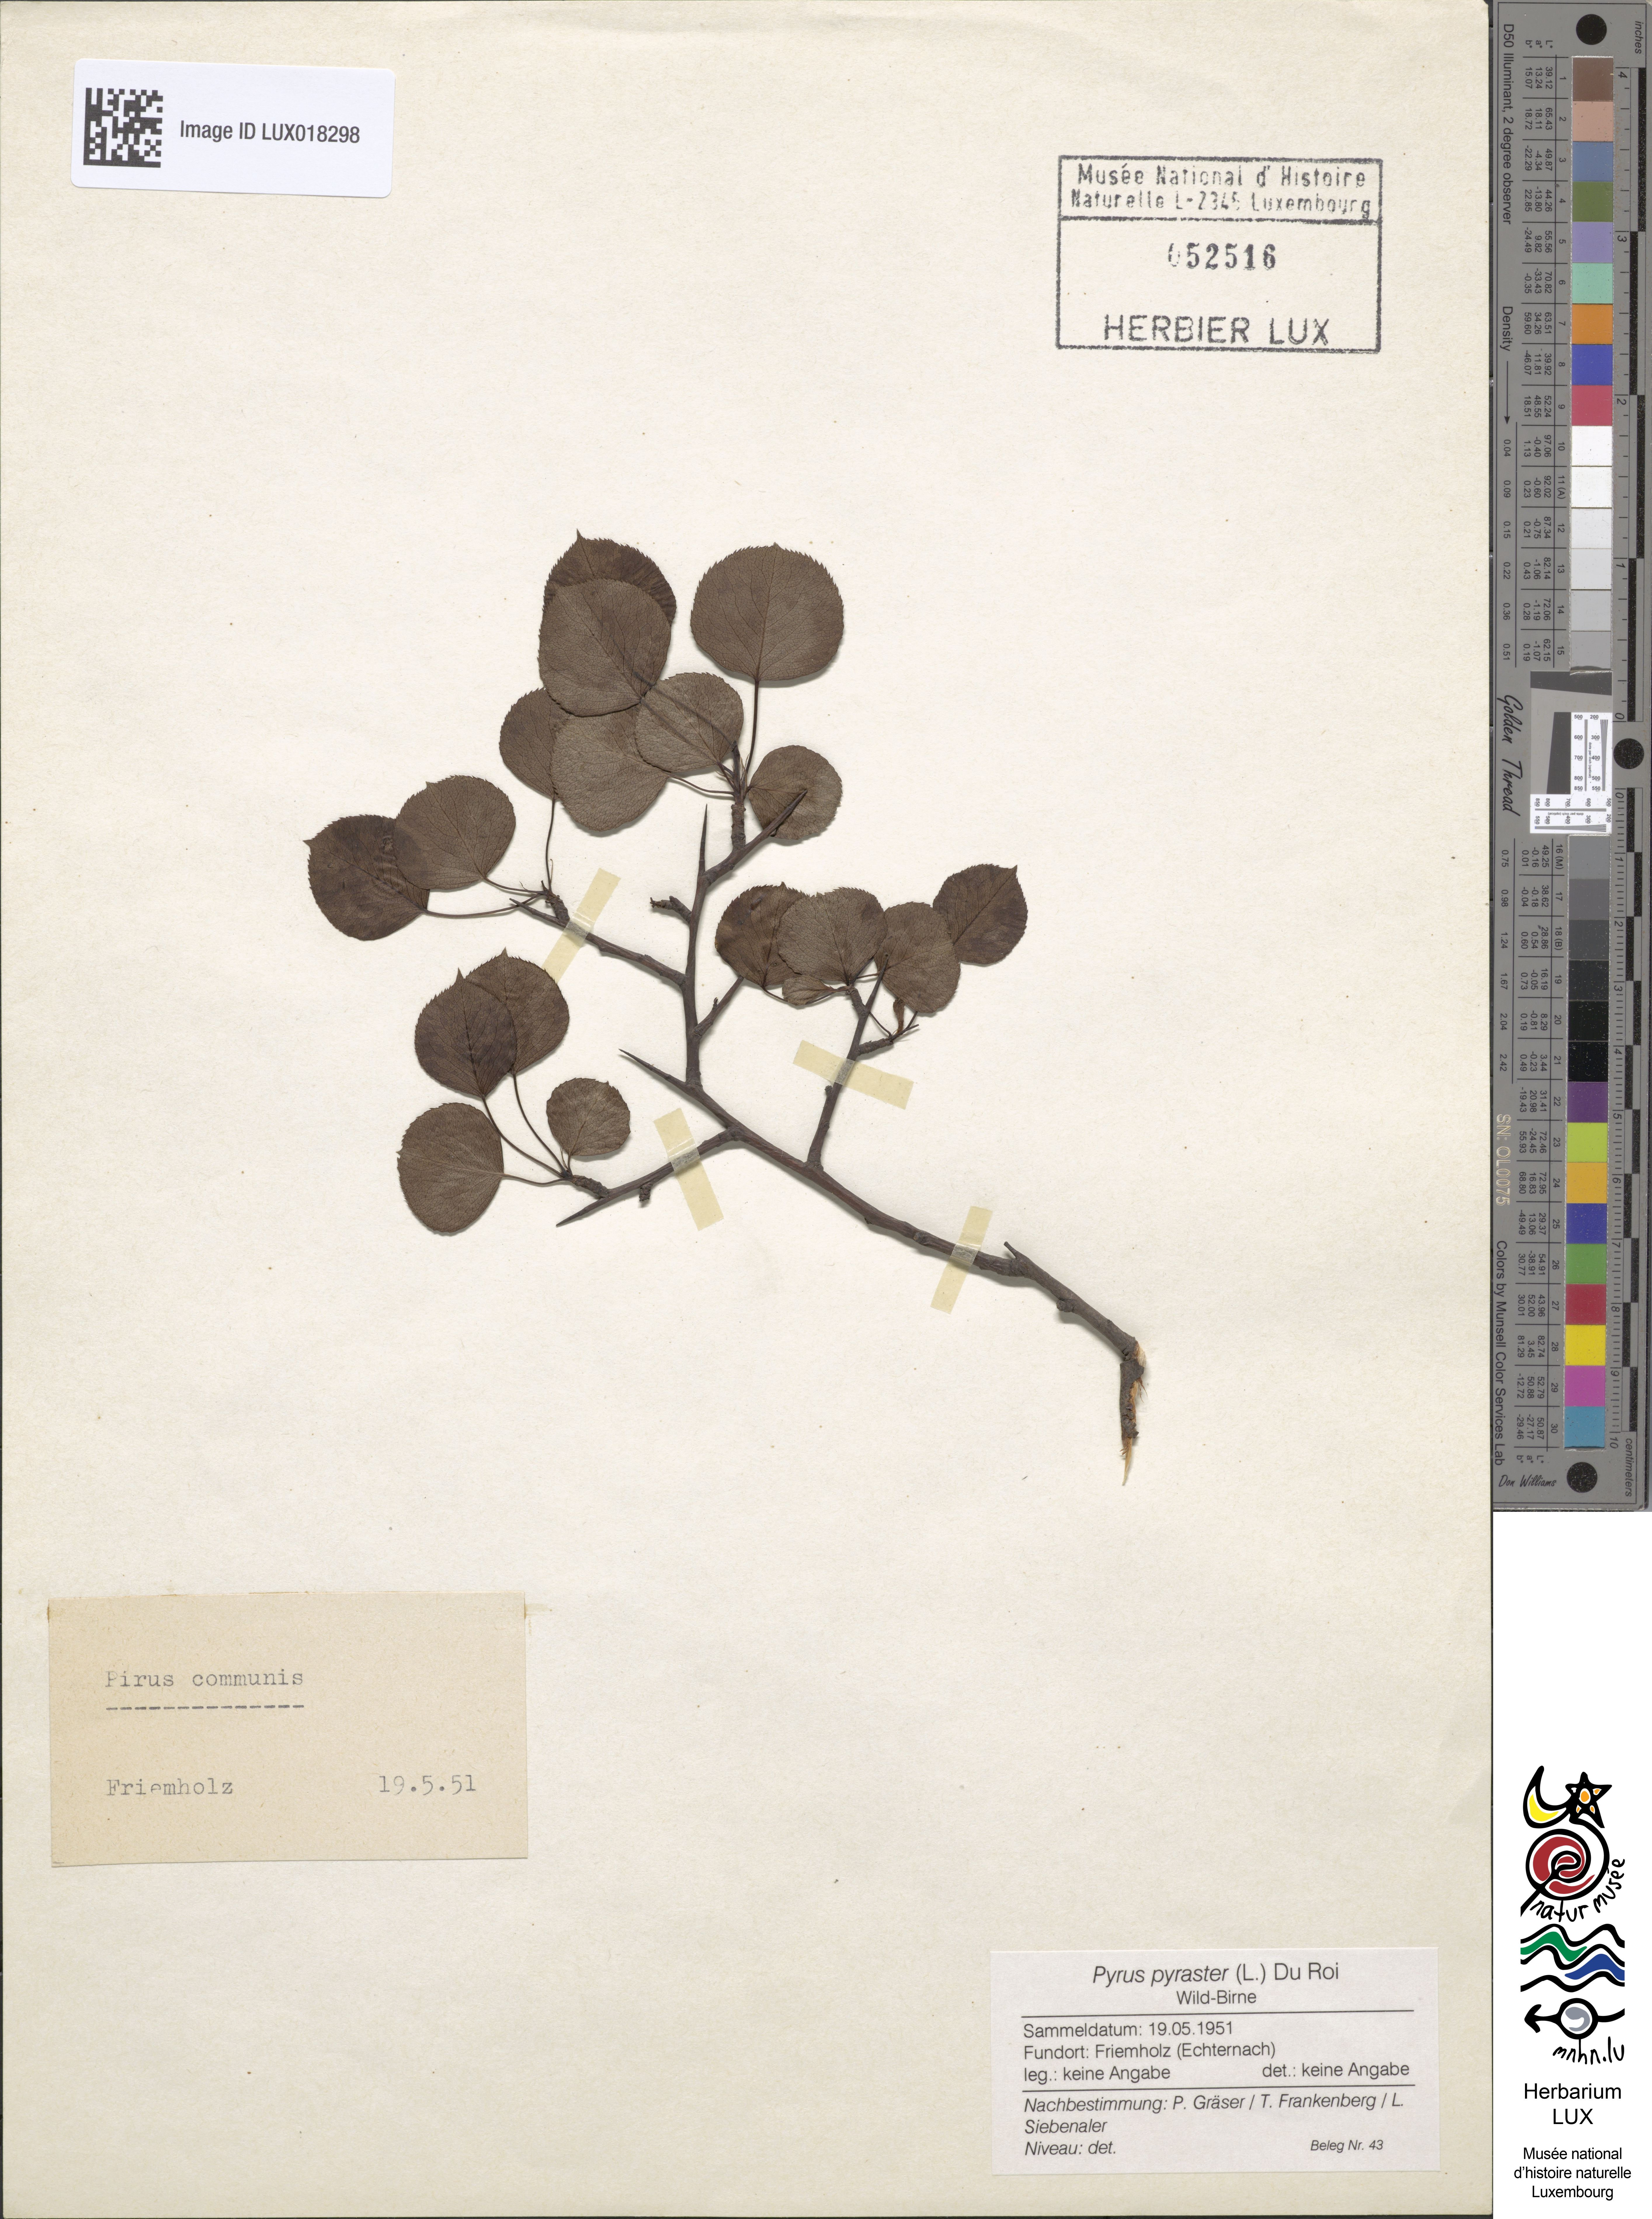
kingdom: Plantae
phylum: Tracheophyta
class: Magnoliopsida
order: Rosales
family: Rosaceae
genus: Pyrus
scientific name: Pyrus pyraster
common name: Wild pear
